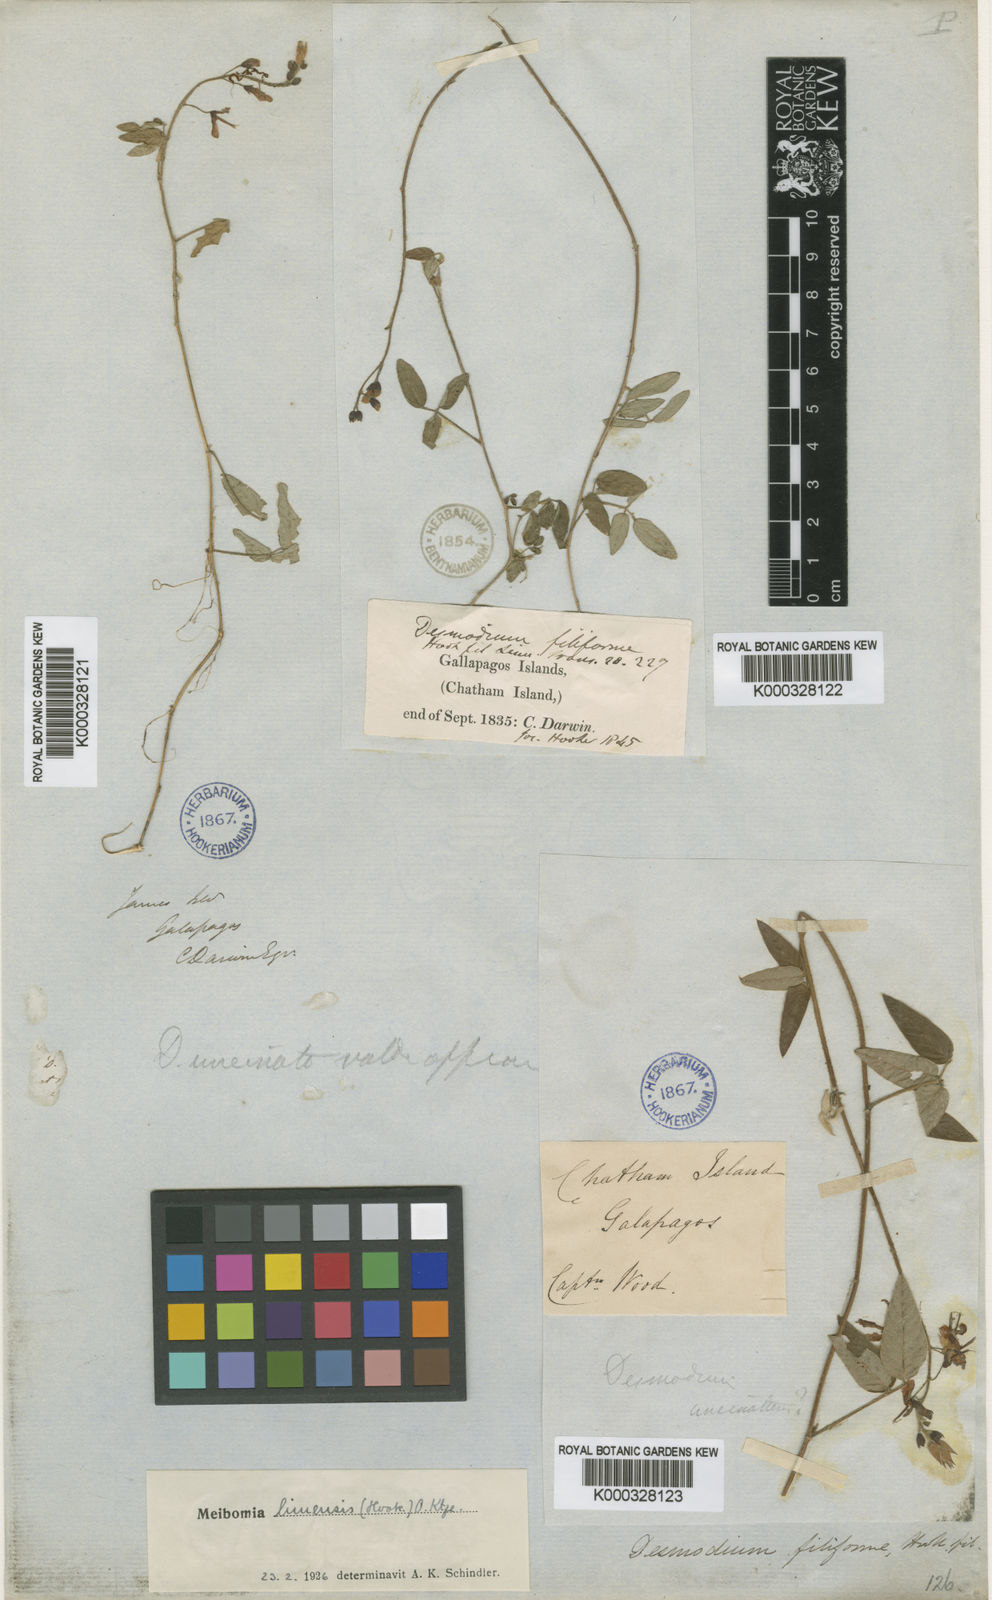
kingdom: Plantae
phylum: Tracheophyta
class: Magnoliopsida
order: Fabales
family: Fabaceae
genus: Desmodium
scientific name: Desmodium limense
